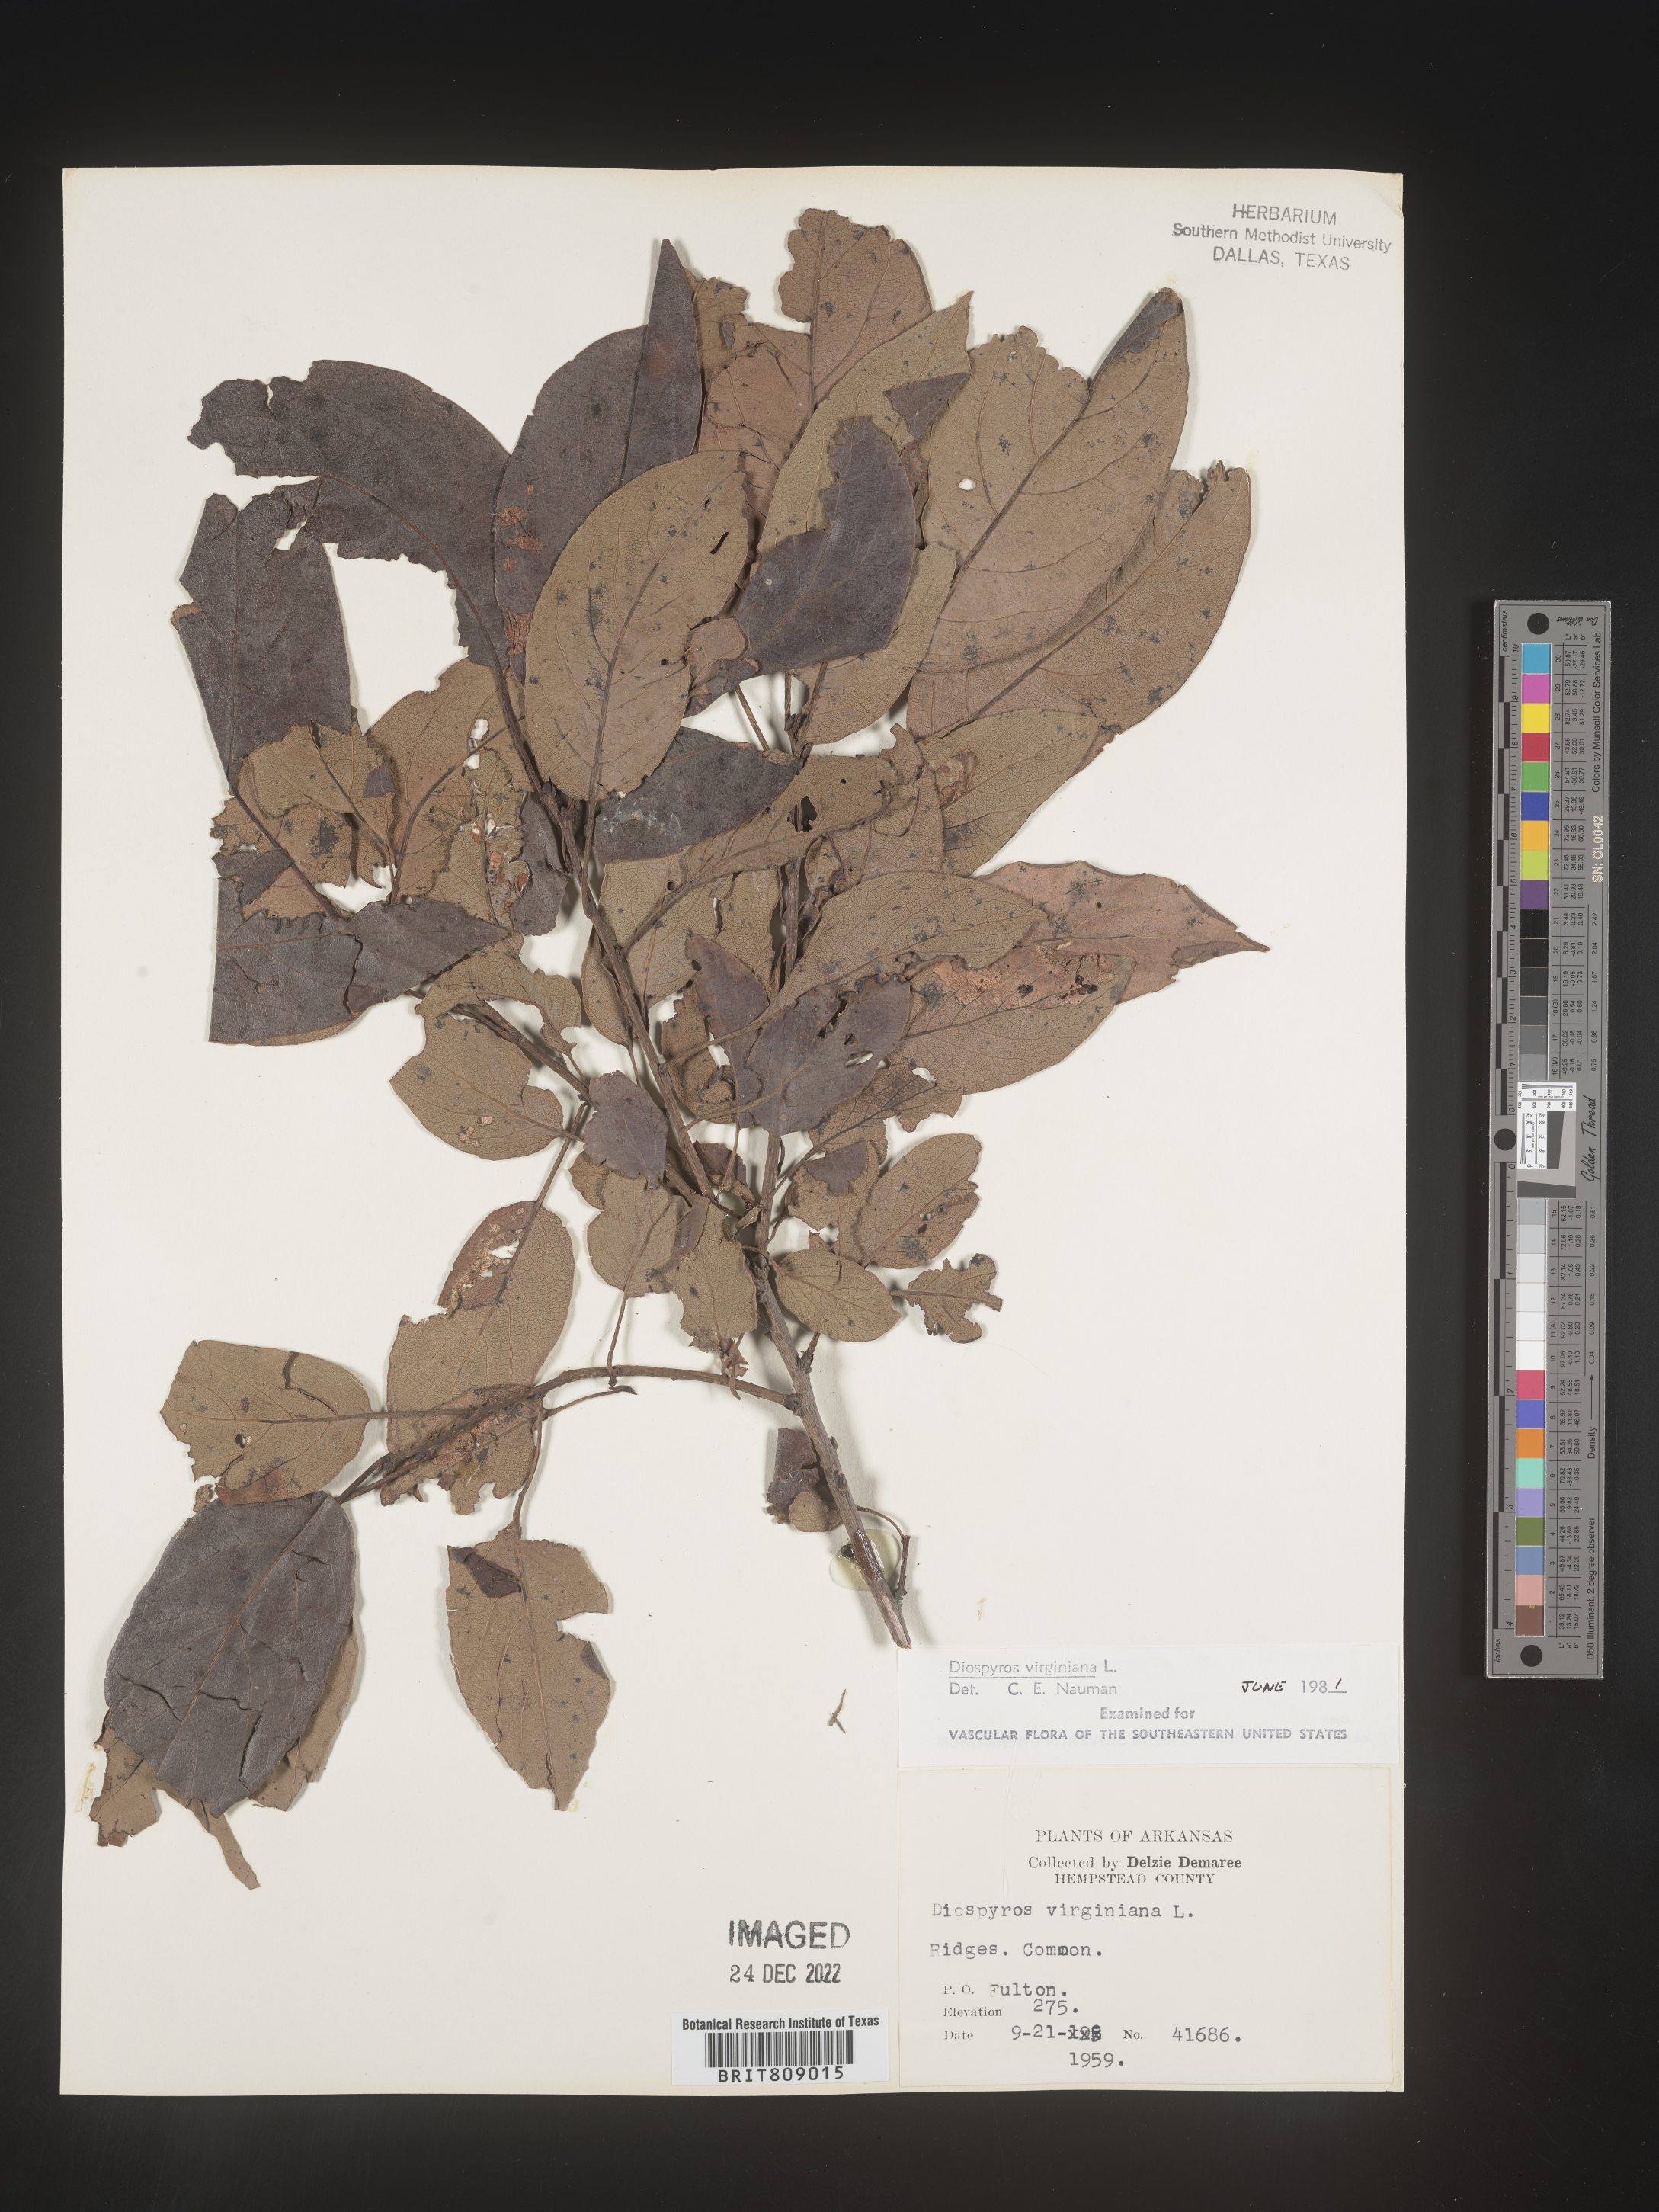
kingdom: Plantae
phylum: Tracheophyta
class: Magnoliopsida
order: Ericales
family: Ebenaceae
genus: Diospyros
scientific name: Diospyros virginiana
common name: Persimmon
